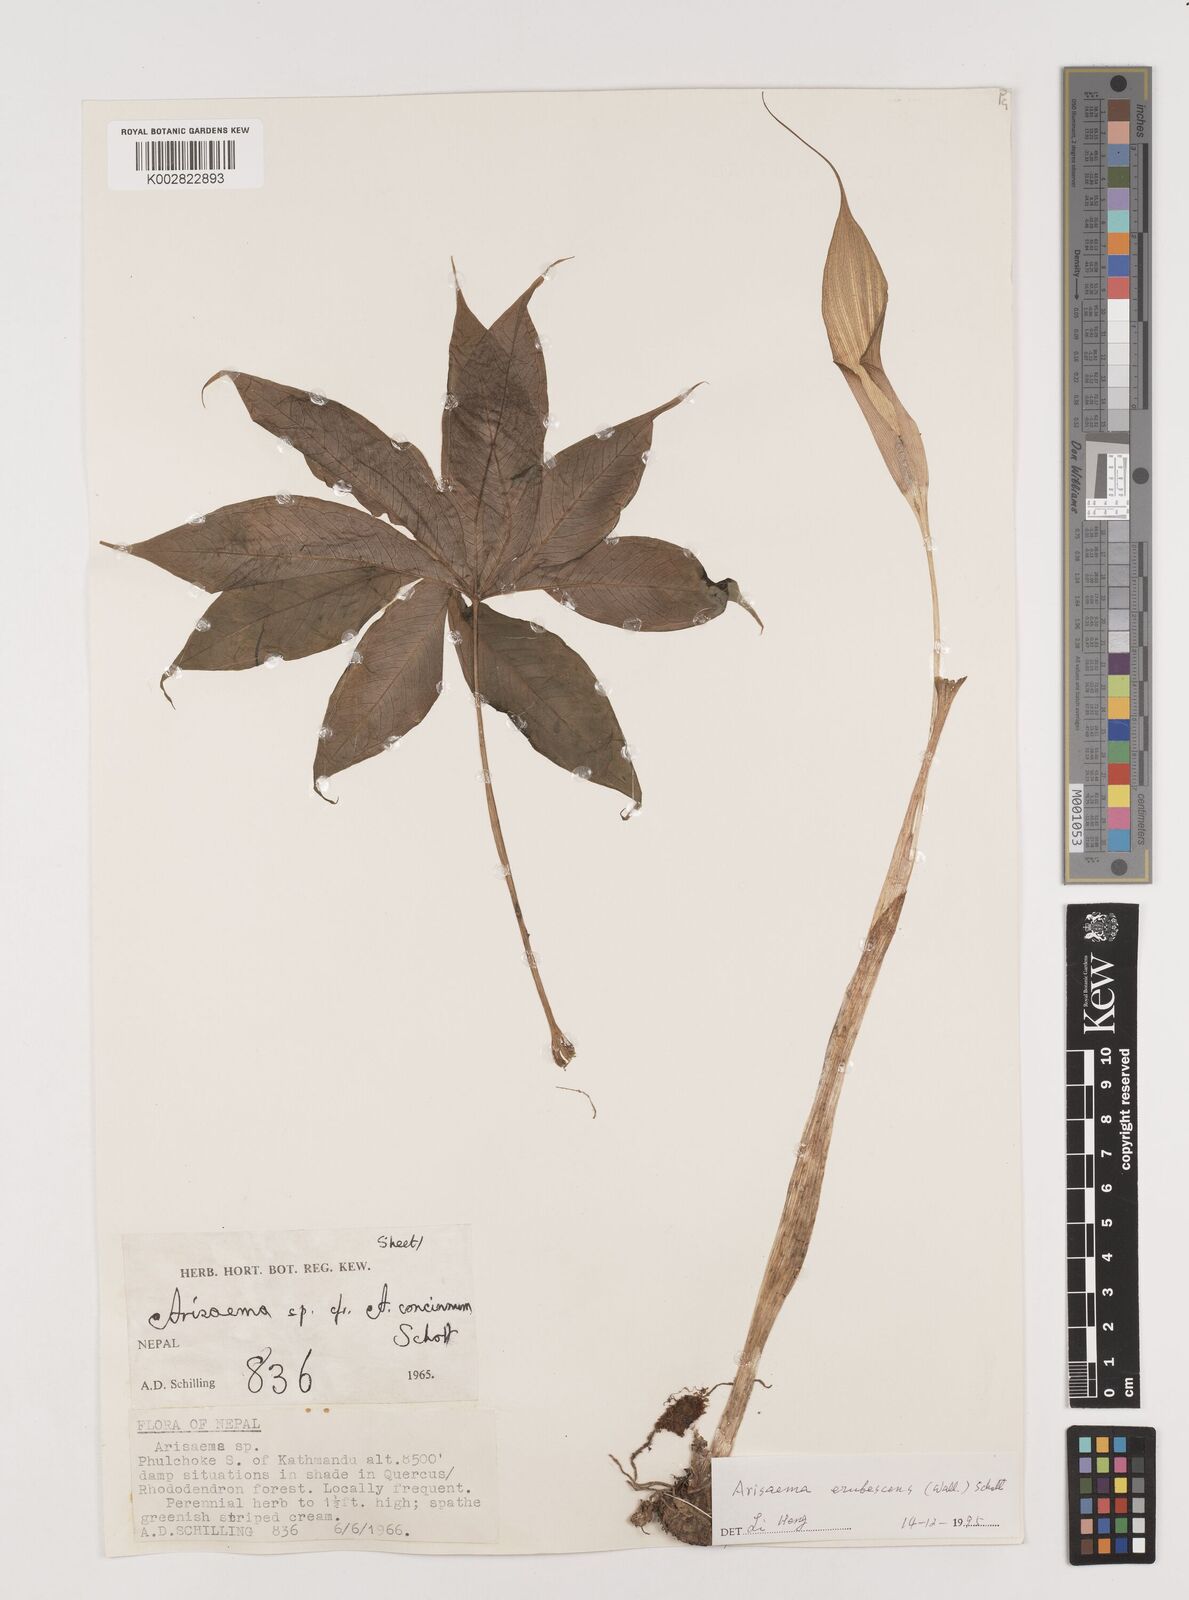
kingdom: Plantae
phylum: Tracheophyta
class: Liliopsida
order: Alismatales
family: Araceae
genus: Arisaema
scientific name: Arisaema erubescens
